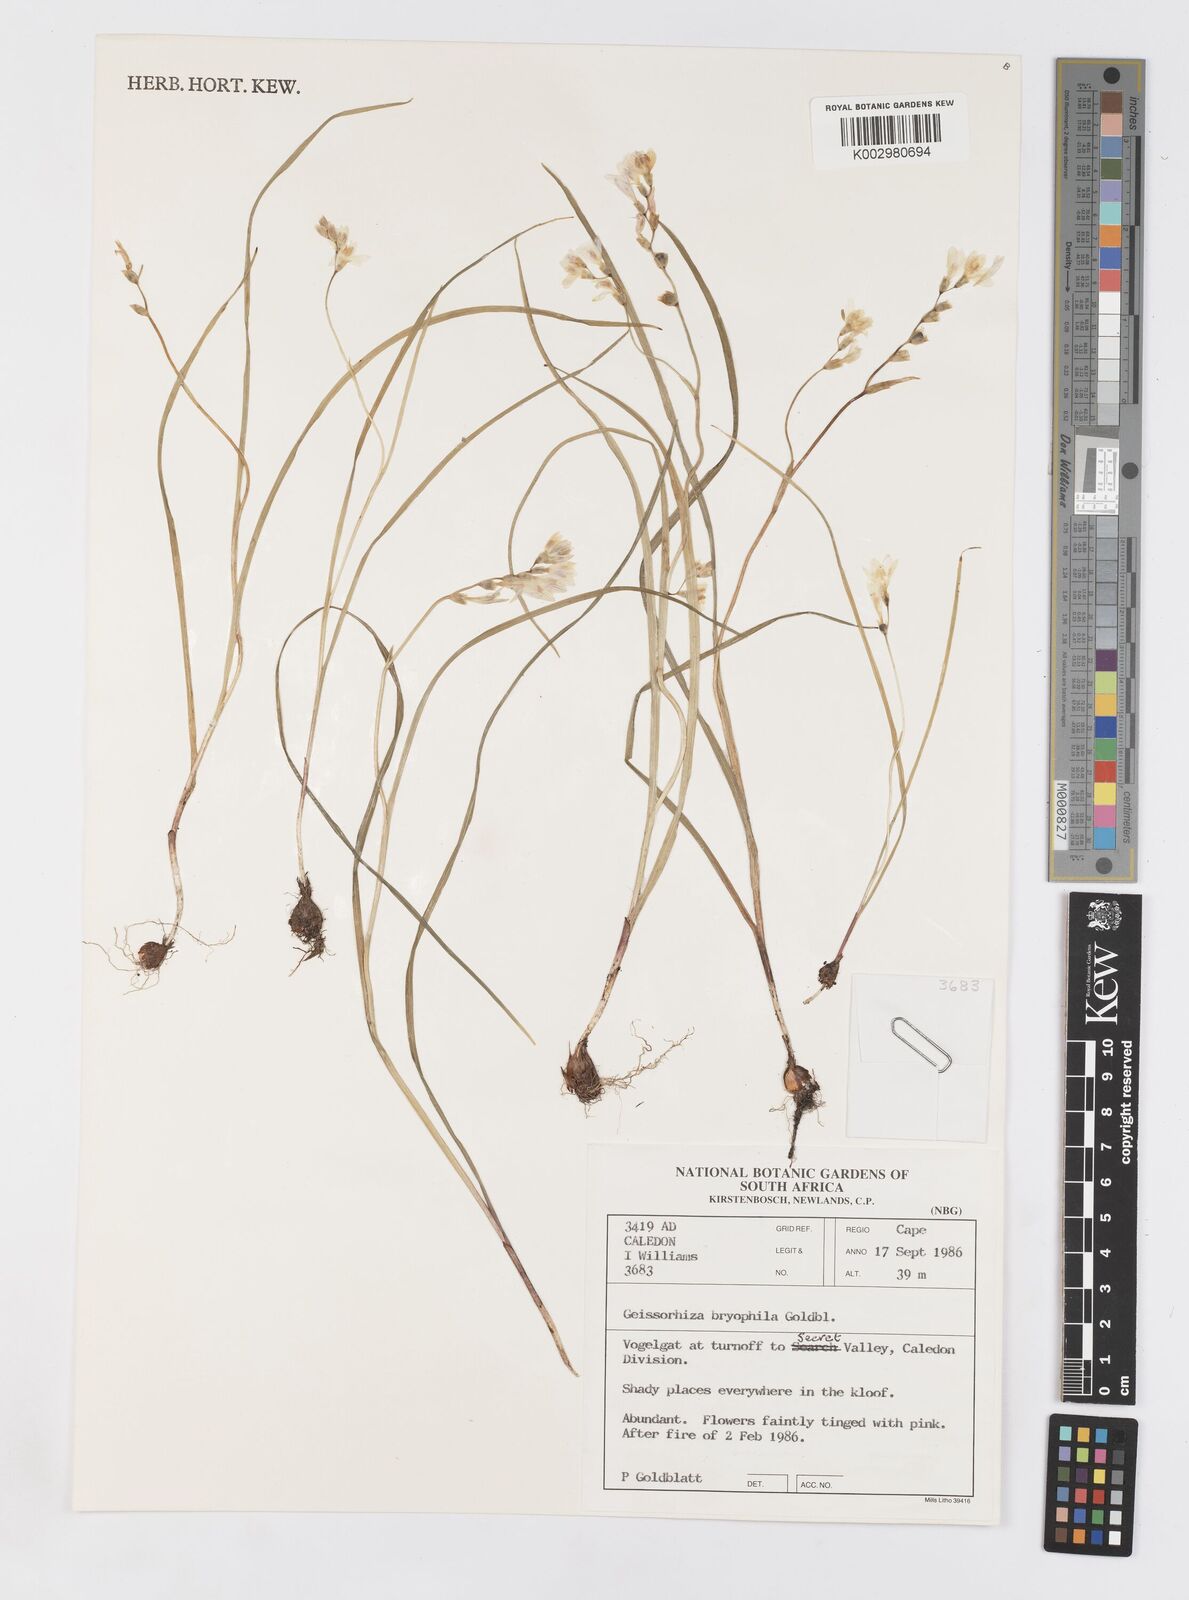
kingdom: Plantae
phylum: Tracheophyta
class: Liliopsida
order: Asparagales
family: Iridaceae
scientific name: Iridaceae
